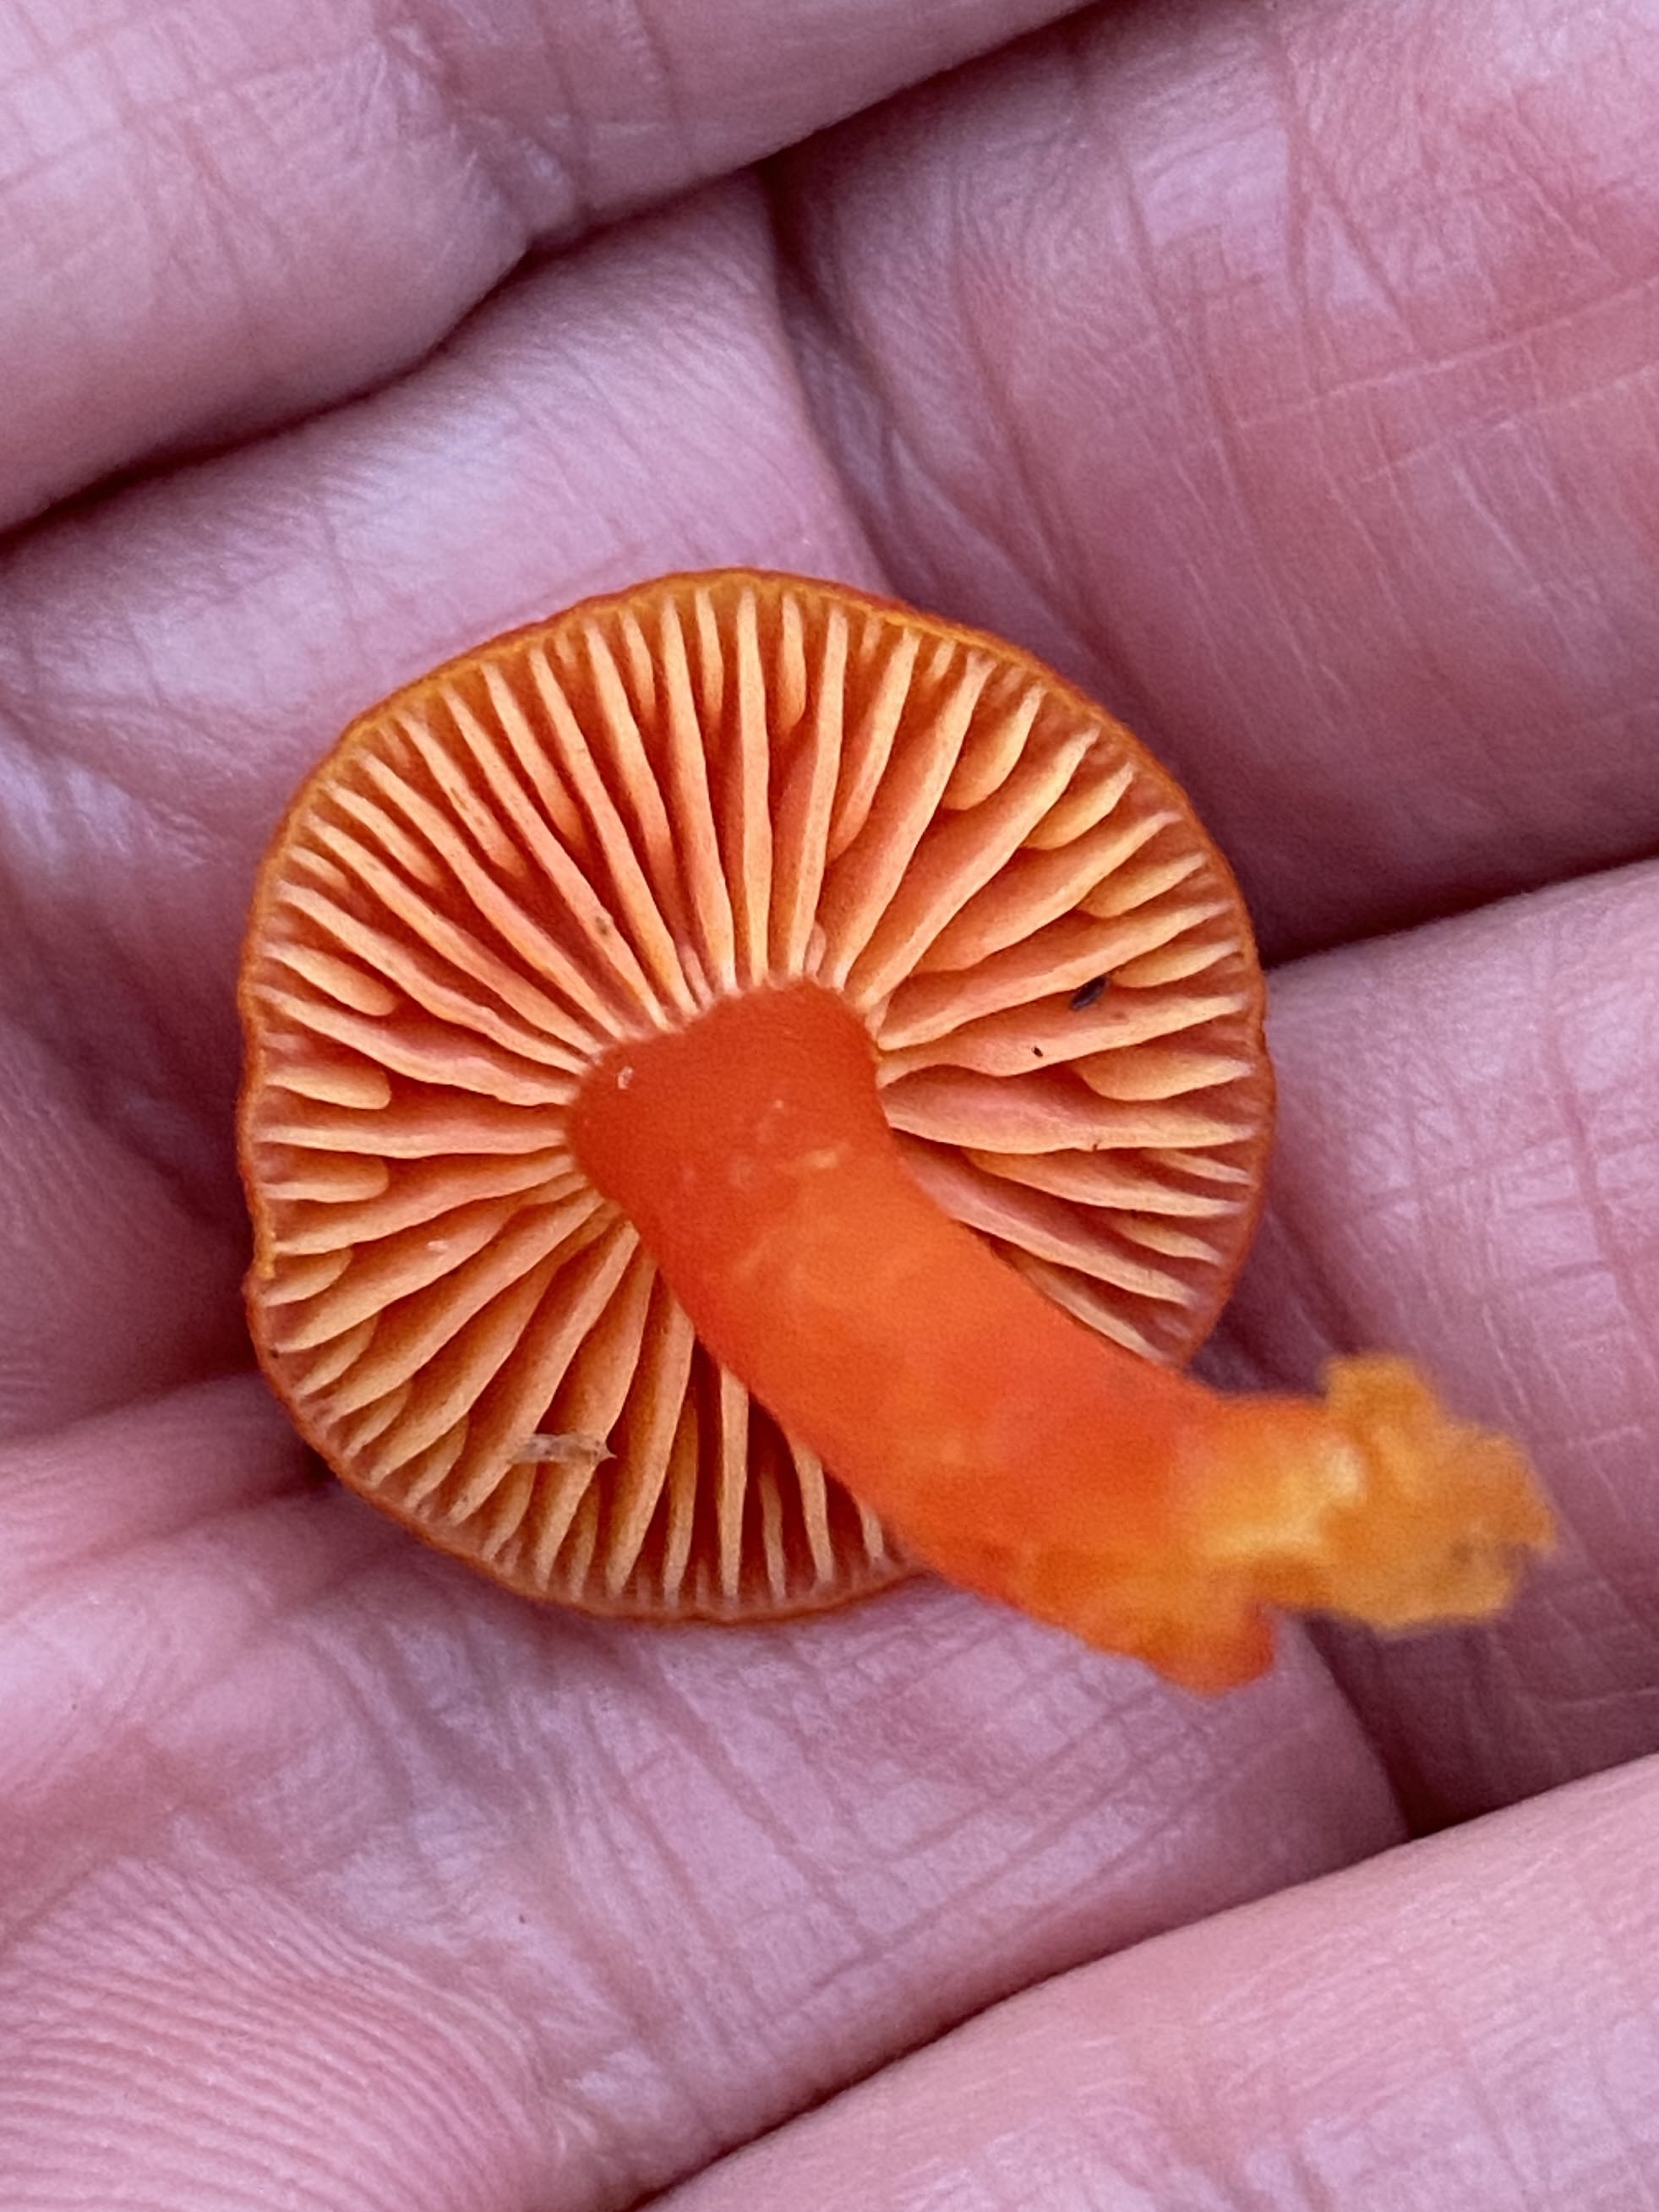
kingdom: Fungi
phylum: Basidiomycota
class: Agaricomycetes
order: Agaricales
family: Hygrophoraceae
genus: Hygrocybe
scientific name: Hygrocybe miniata
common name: mønje-vokshat
